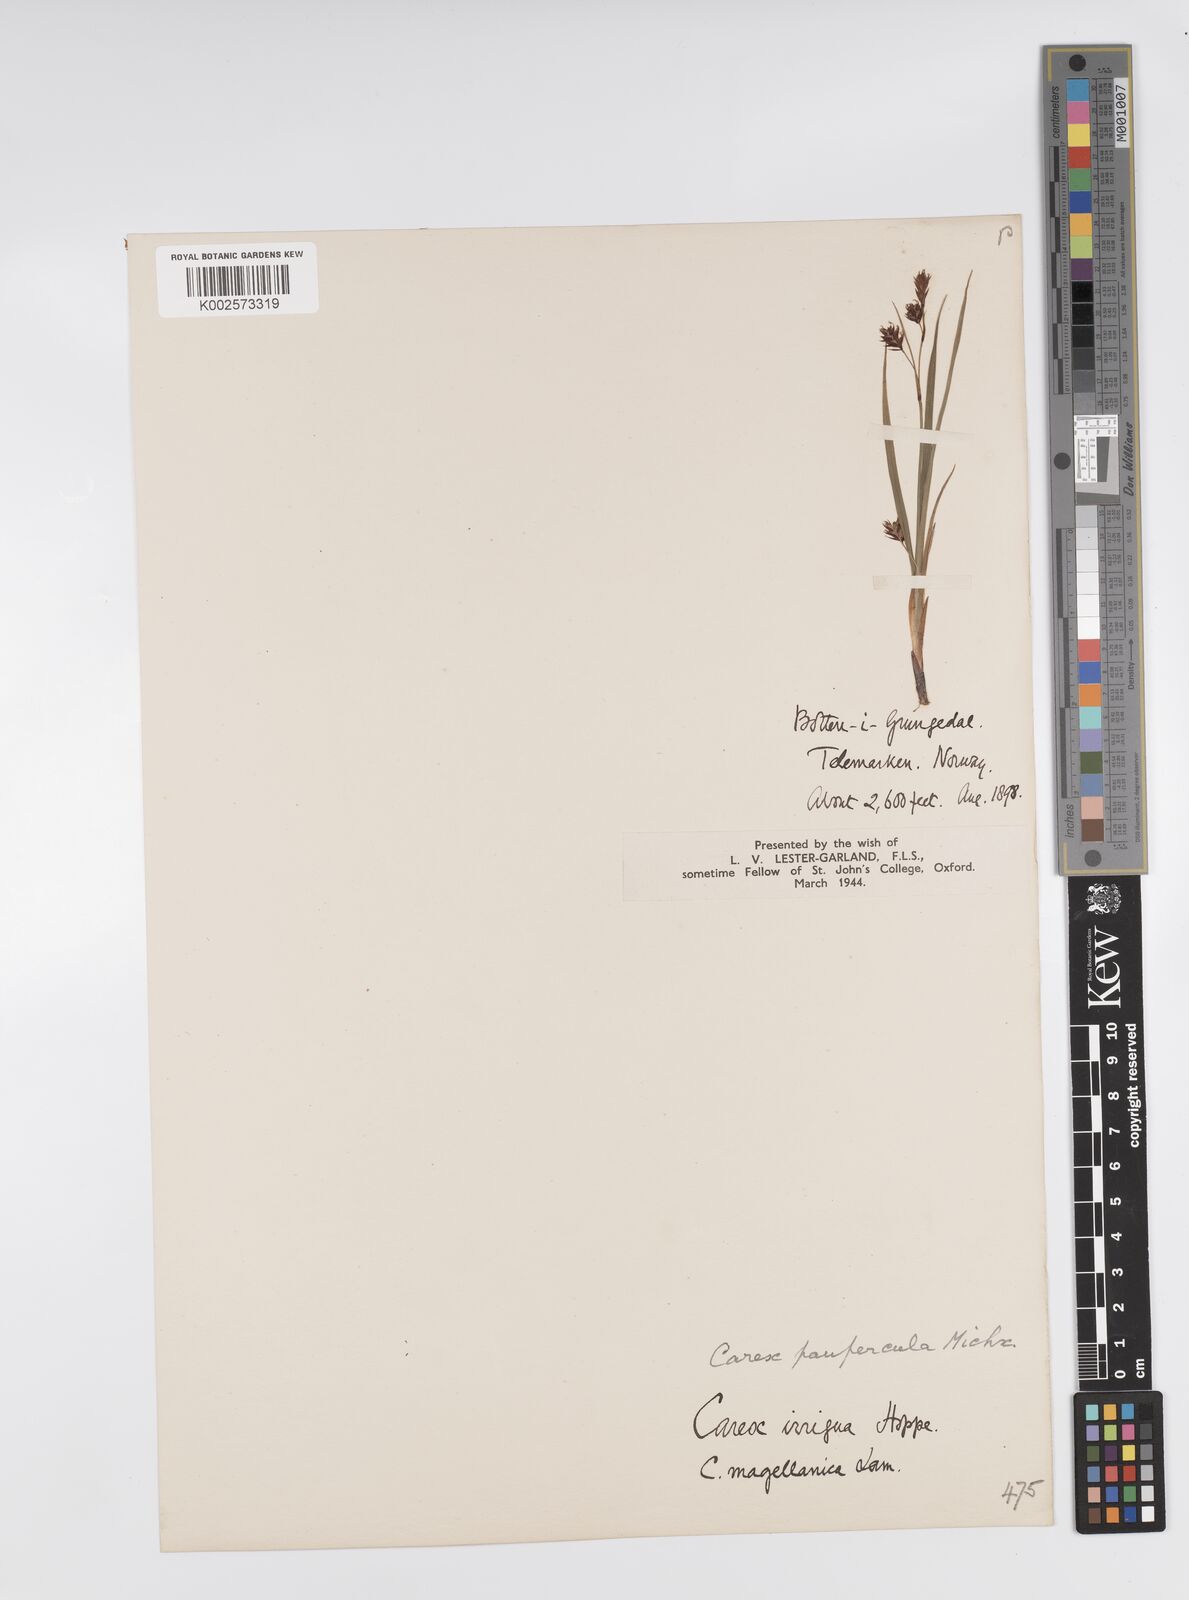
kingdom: Plantae
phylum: Tracheophyta
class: Liliopsida
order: Poales
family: Cyperaceae
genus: Carex
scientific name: Carex magellanica
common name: Bog sedge
